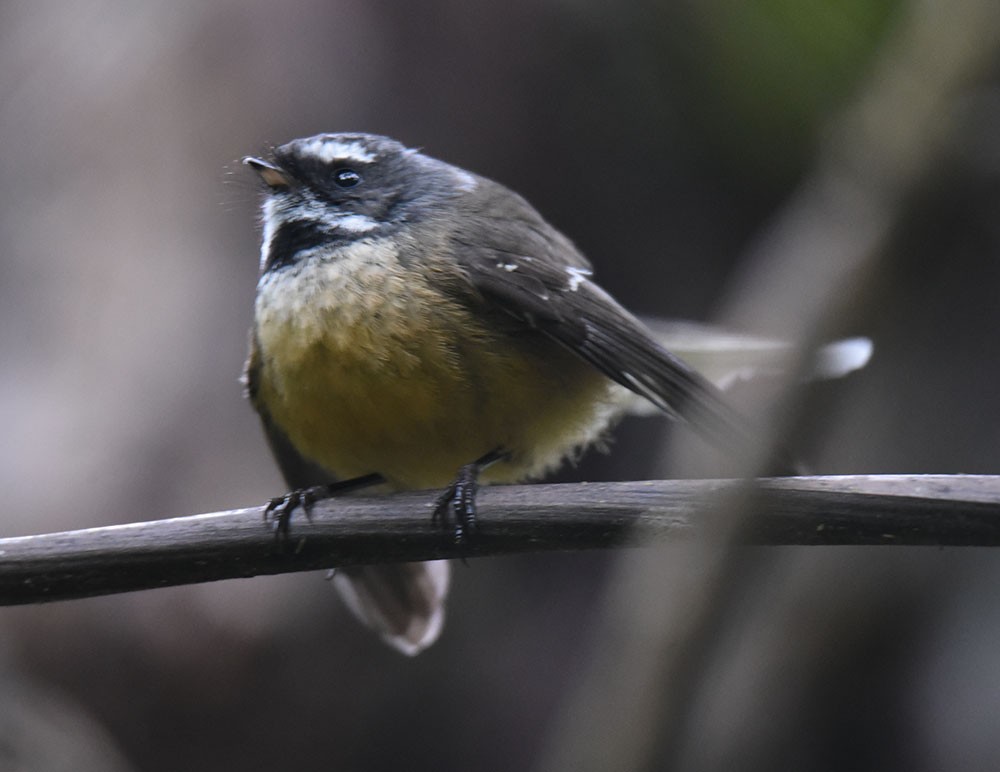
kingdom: Animalia
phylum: Chordata
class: Aves
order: Passeriformes
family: Rhipiduridae
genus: Rhipidura
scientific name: Rhipidura fuliginosa
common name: New zealand fantail
